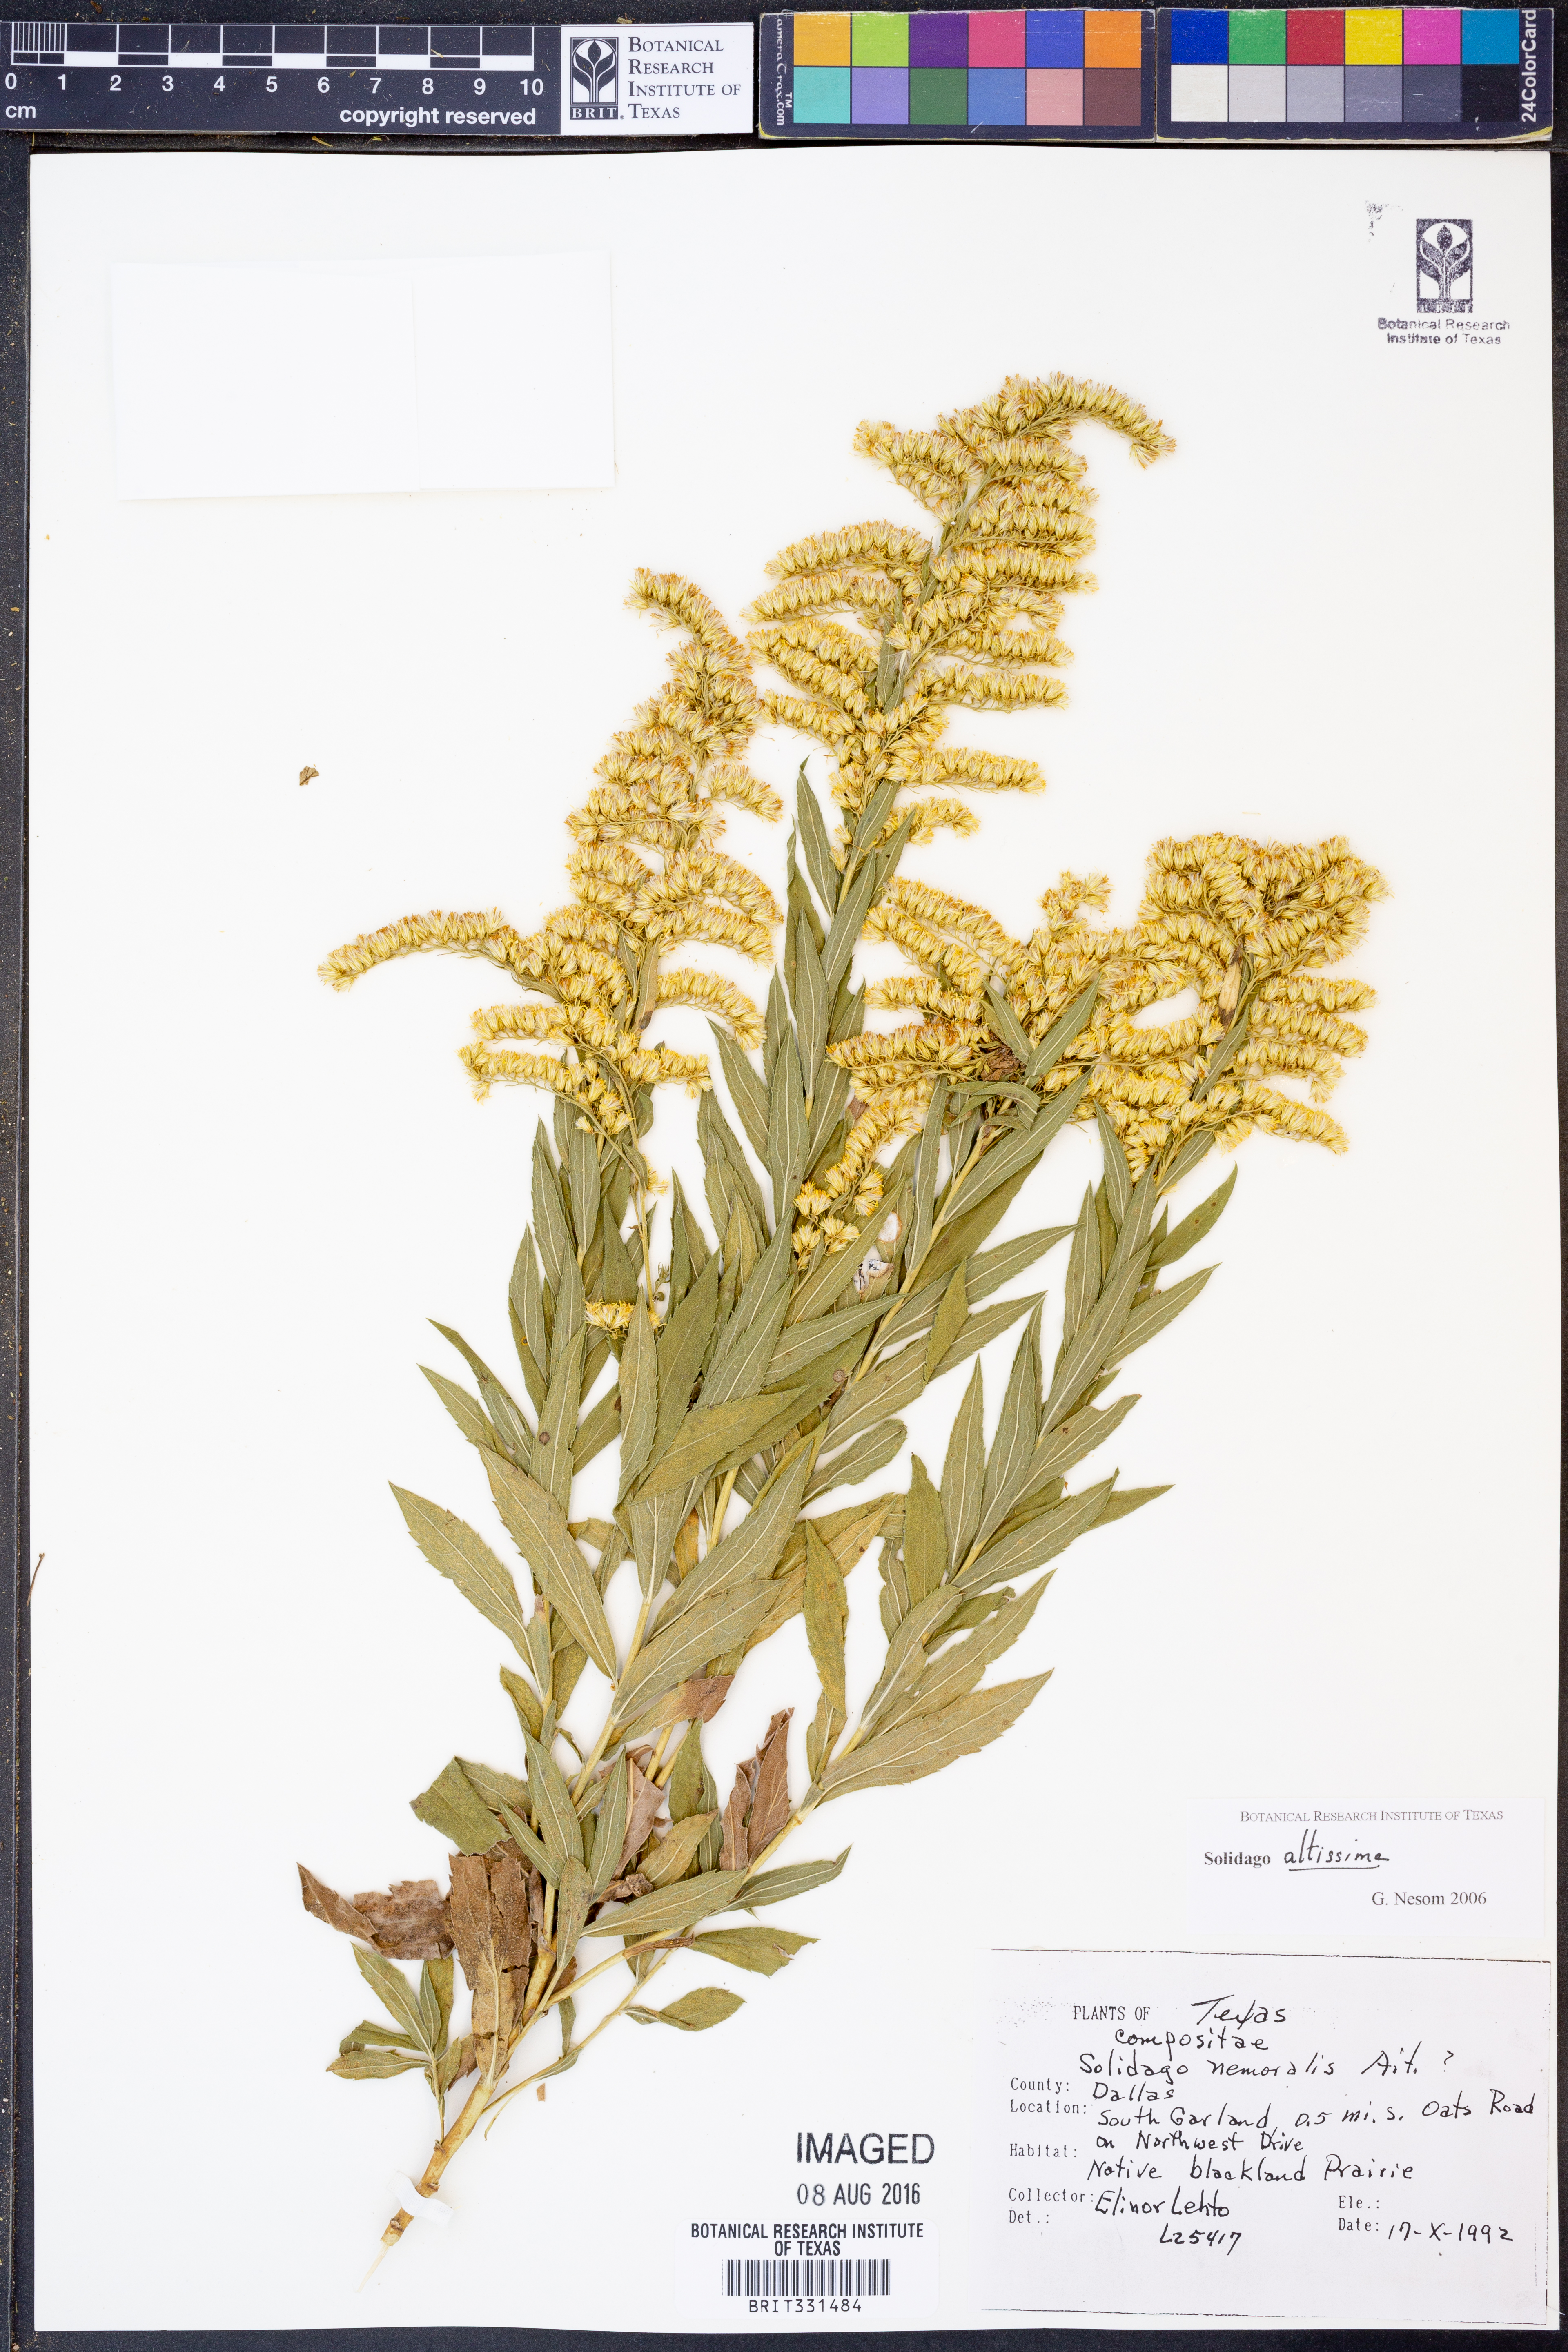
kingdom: Plantae
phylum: Tracheophyta
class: Magnoliopsida
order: Asterales
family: Asteraceae
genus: Solidago
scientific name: Solidago altissima
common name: Late goldenrod
